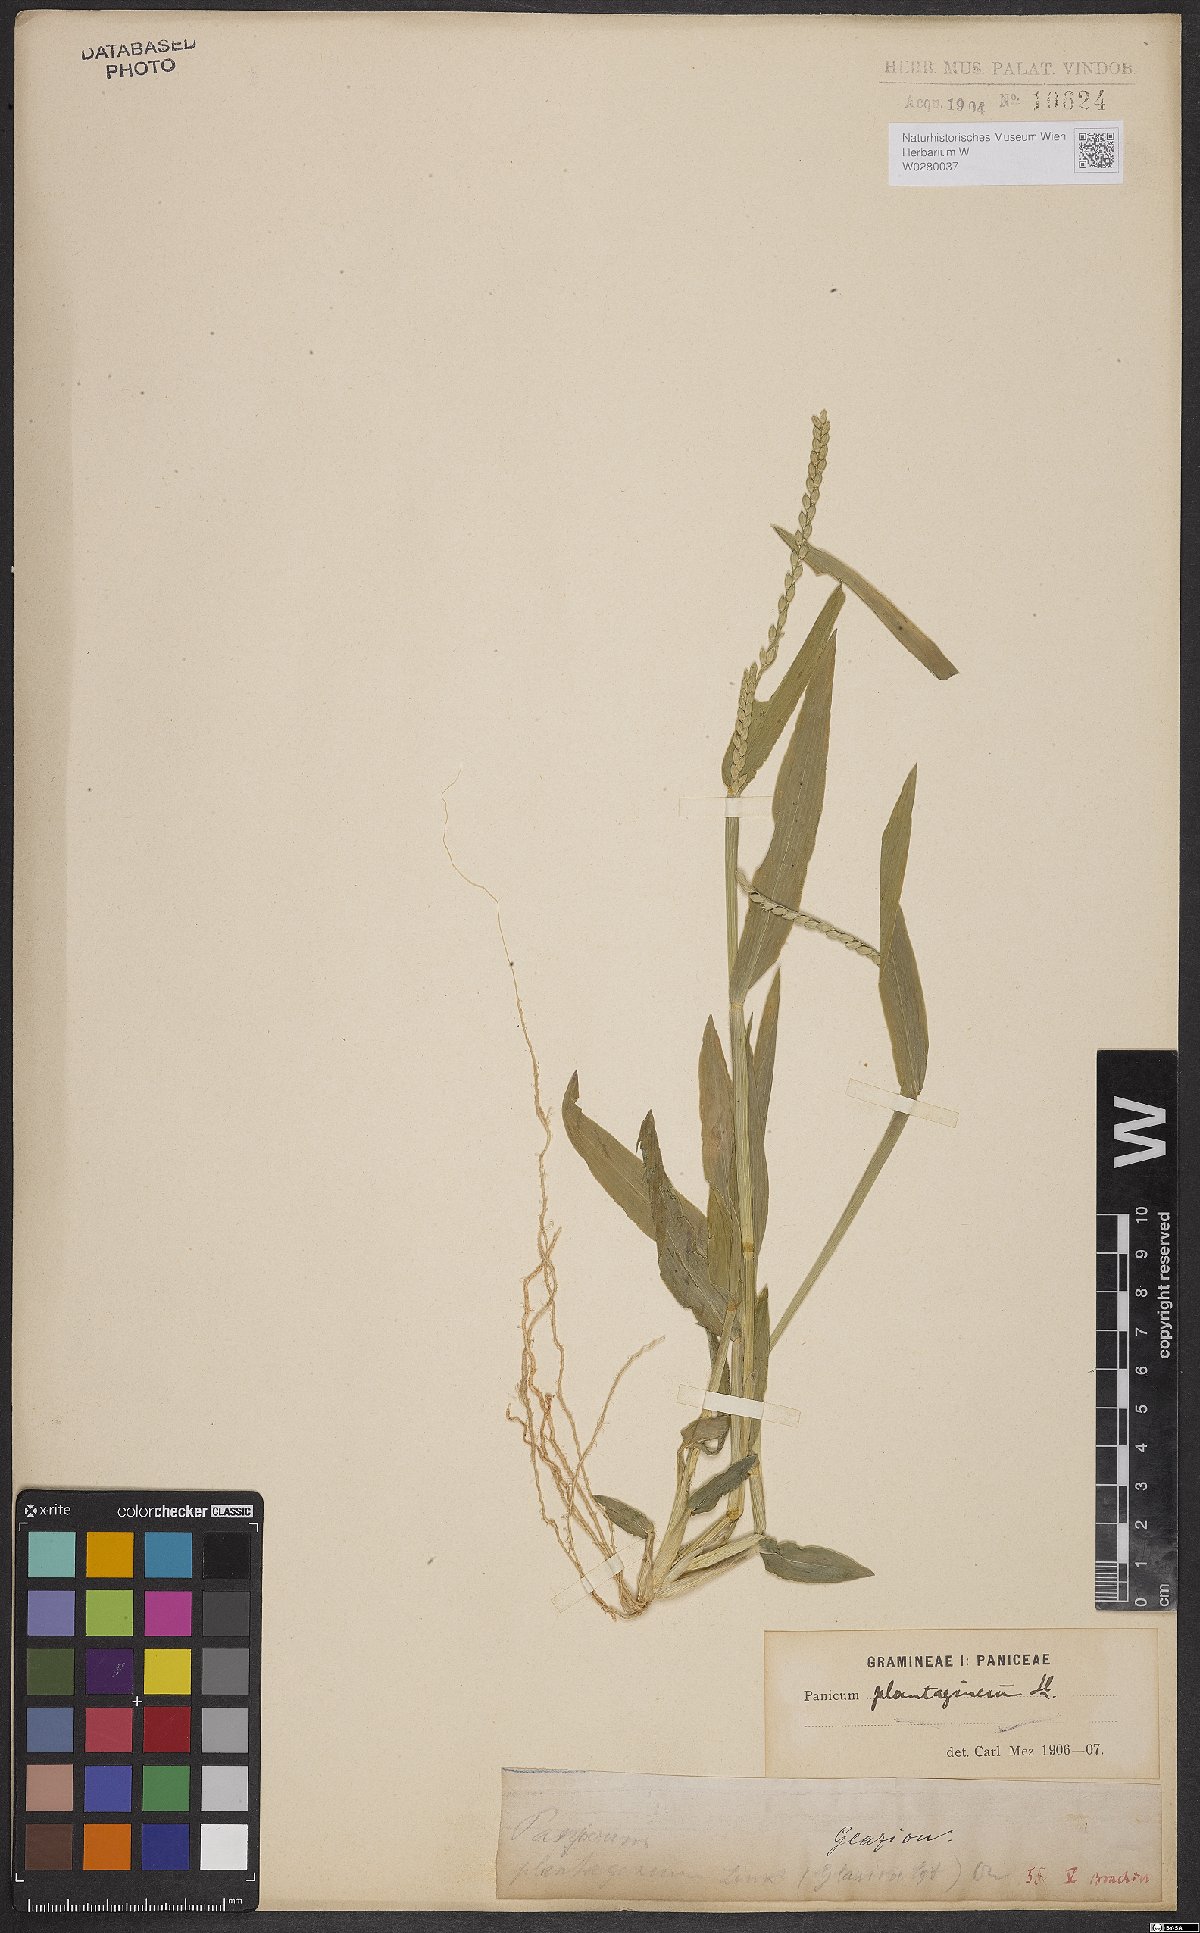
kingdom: Plantae
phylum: Tracheophyta
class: Liliopsida
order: Poales
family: Poaceae
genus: Urochloa
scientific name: Urochloa plantaginea
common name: Plantain signalgrass
